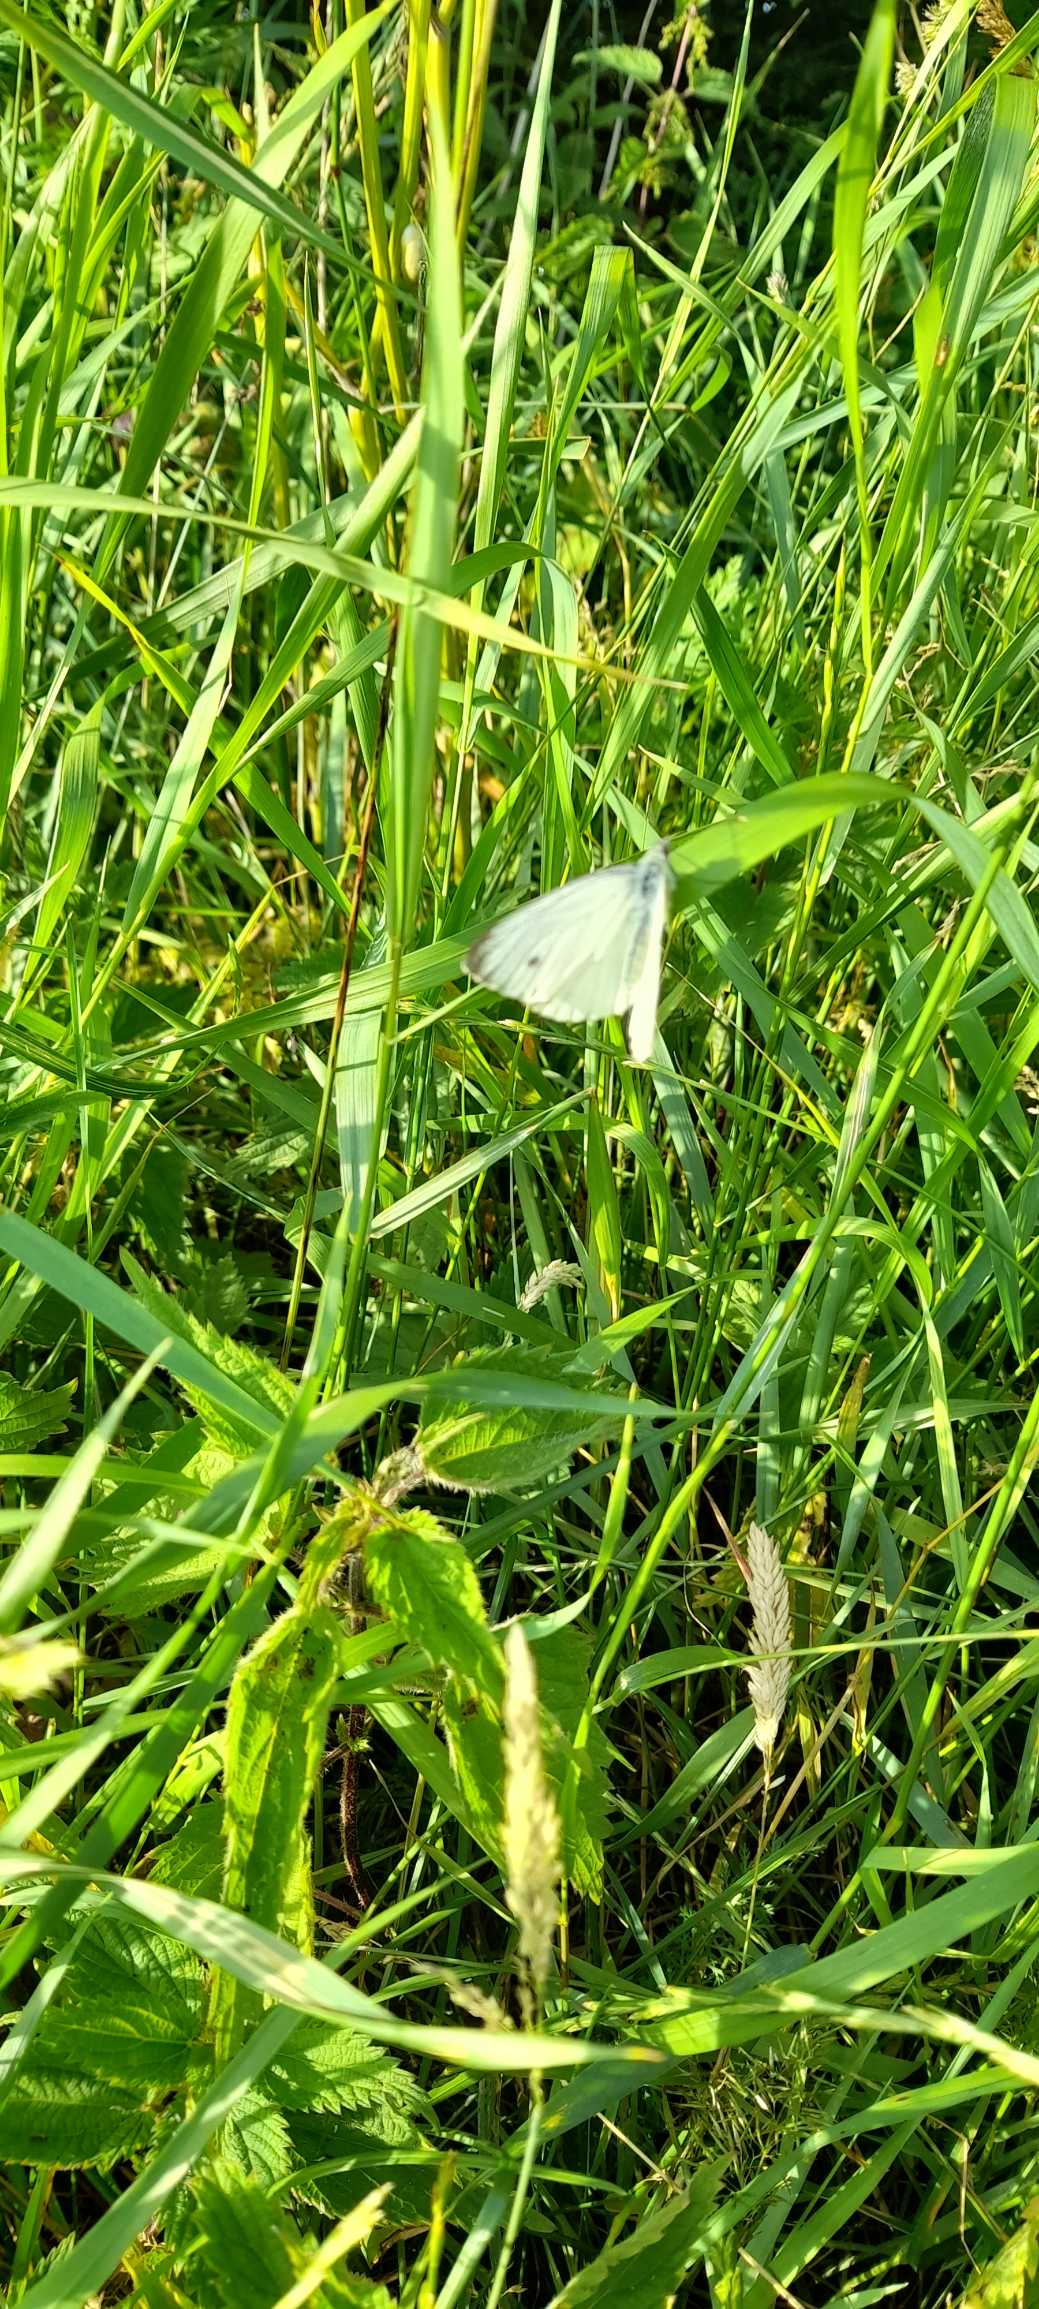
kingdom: Animalia
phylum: Arthropoda
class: Insecta
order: Lepidoptera
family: Pieridae
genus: Pieris
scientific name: Pieris napi
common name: Grønåret kålsommerfugl
